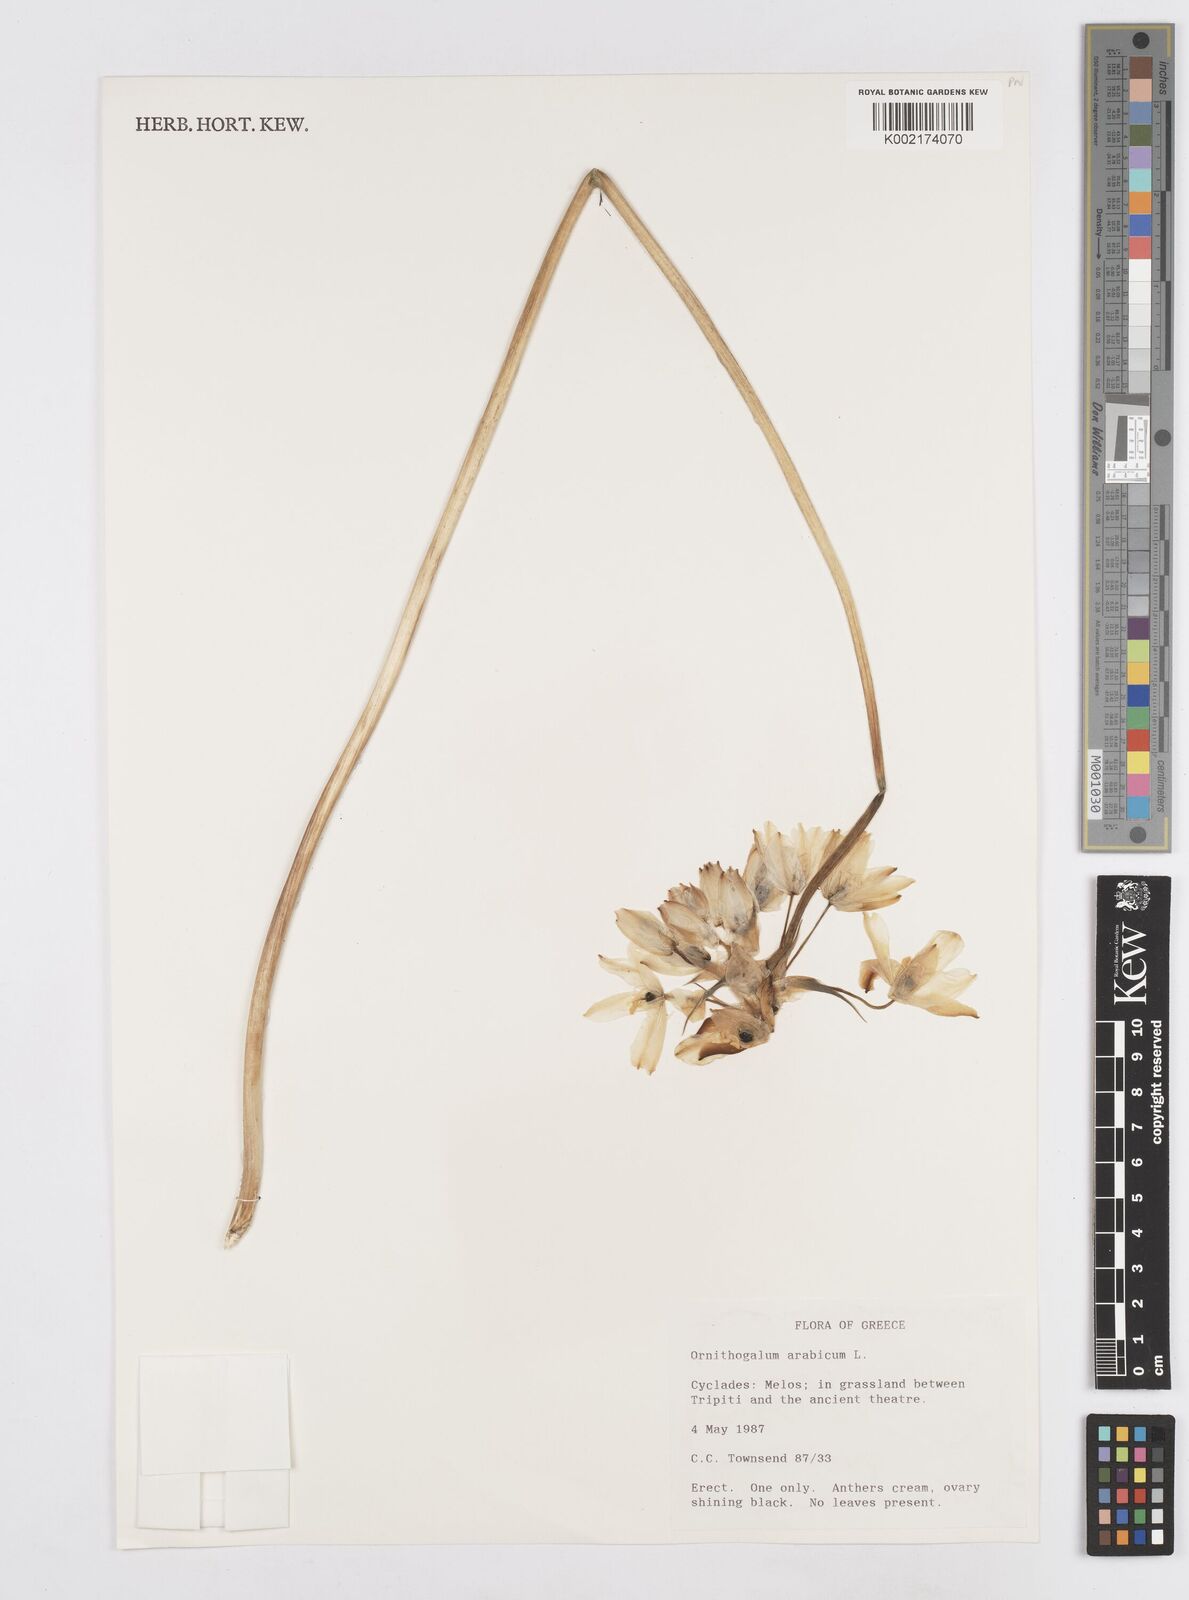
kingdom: Plantae
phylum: Tracheophyta
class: Liliopsida
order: Asparagales
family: Asparagaceae
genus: Ornithogalum
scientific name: Ornithogalum arabicum
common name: Arabian starflower
